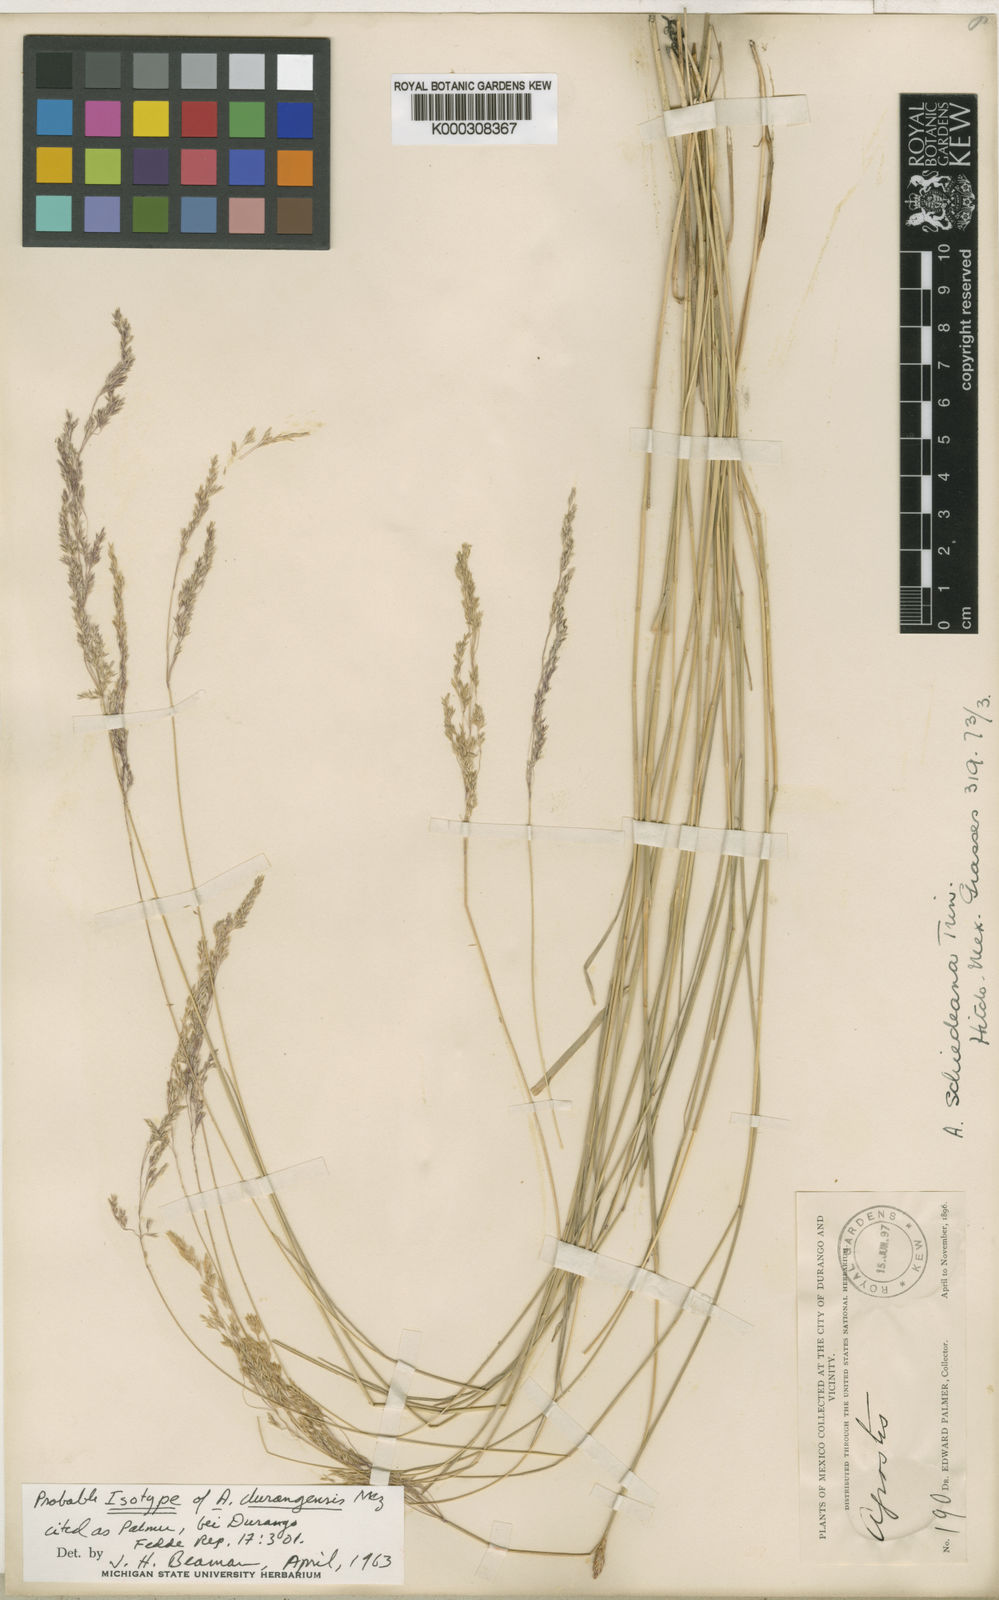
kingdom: Plantae
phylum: Tracheophyta
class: Liliopsida
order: Poales
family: Poaceae
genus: Agrostis
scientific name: Agrostis exarata
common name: Spike bent
